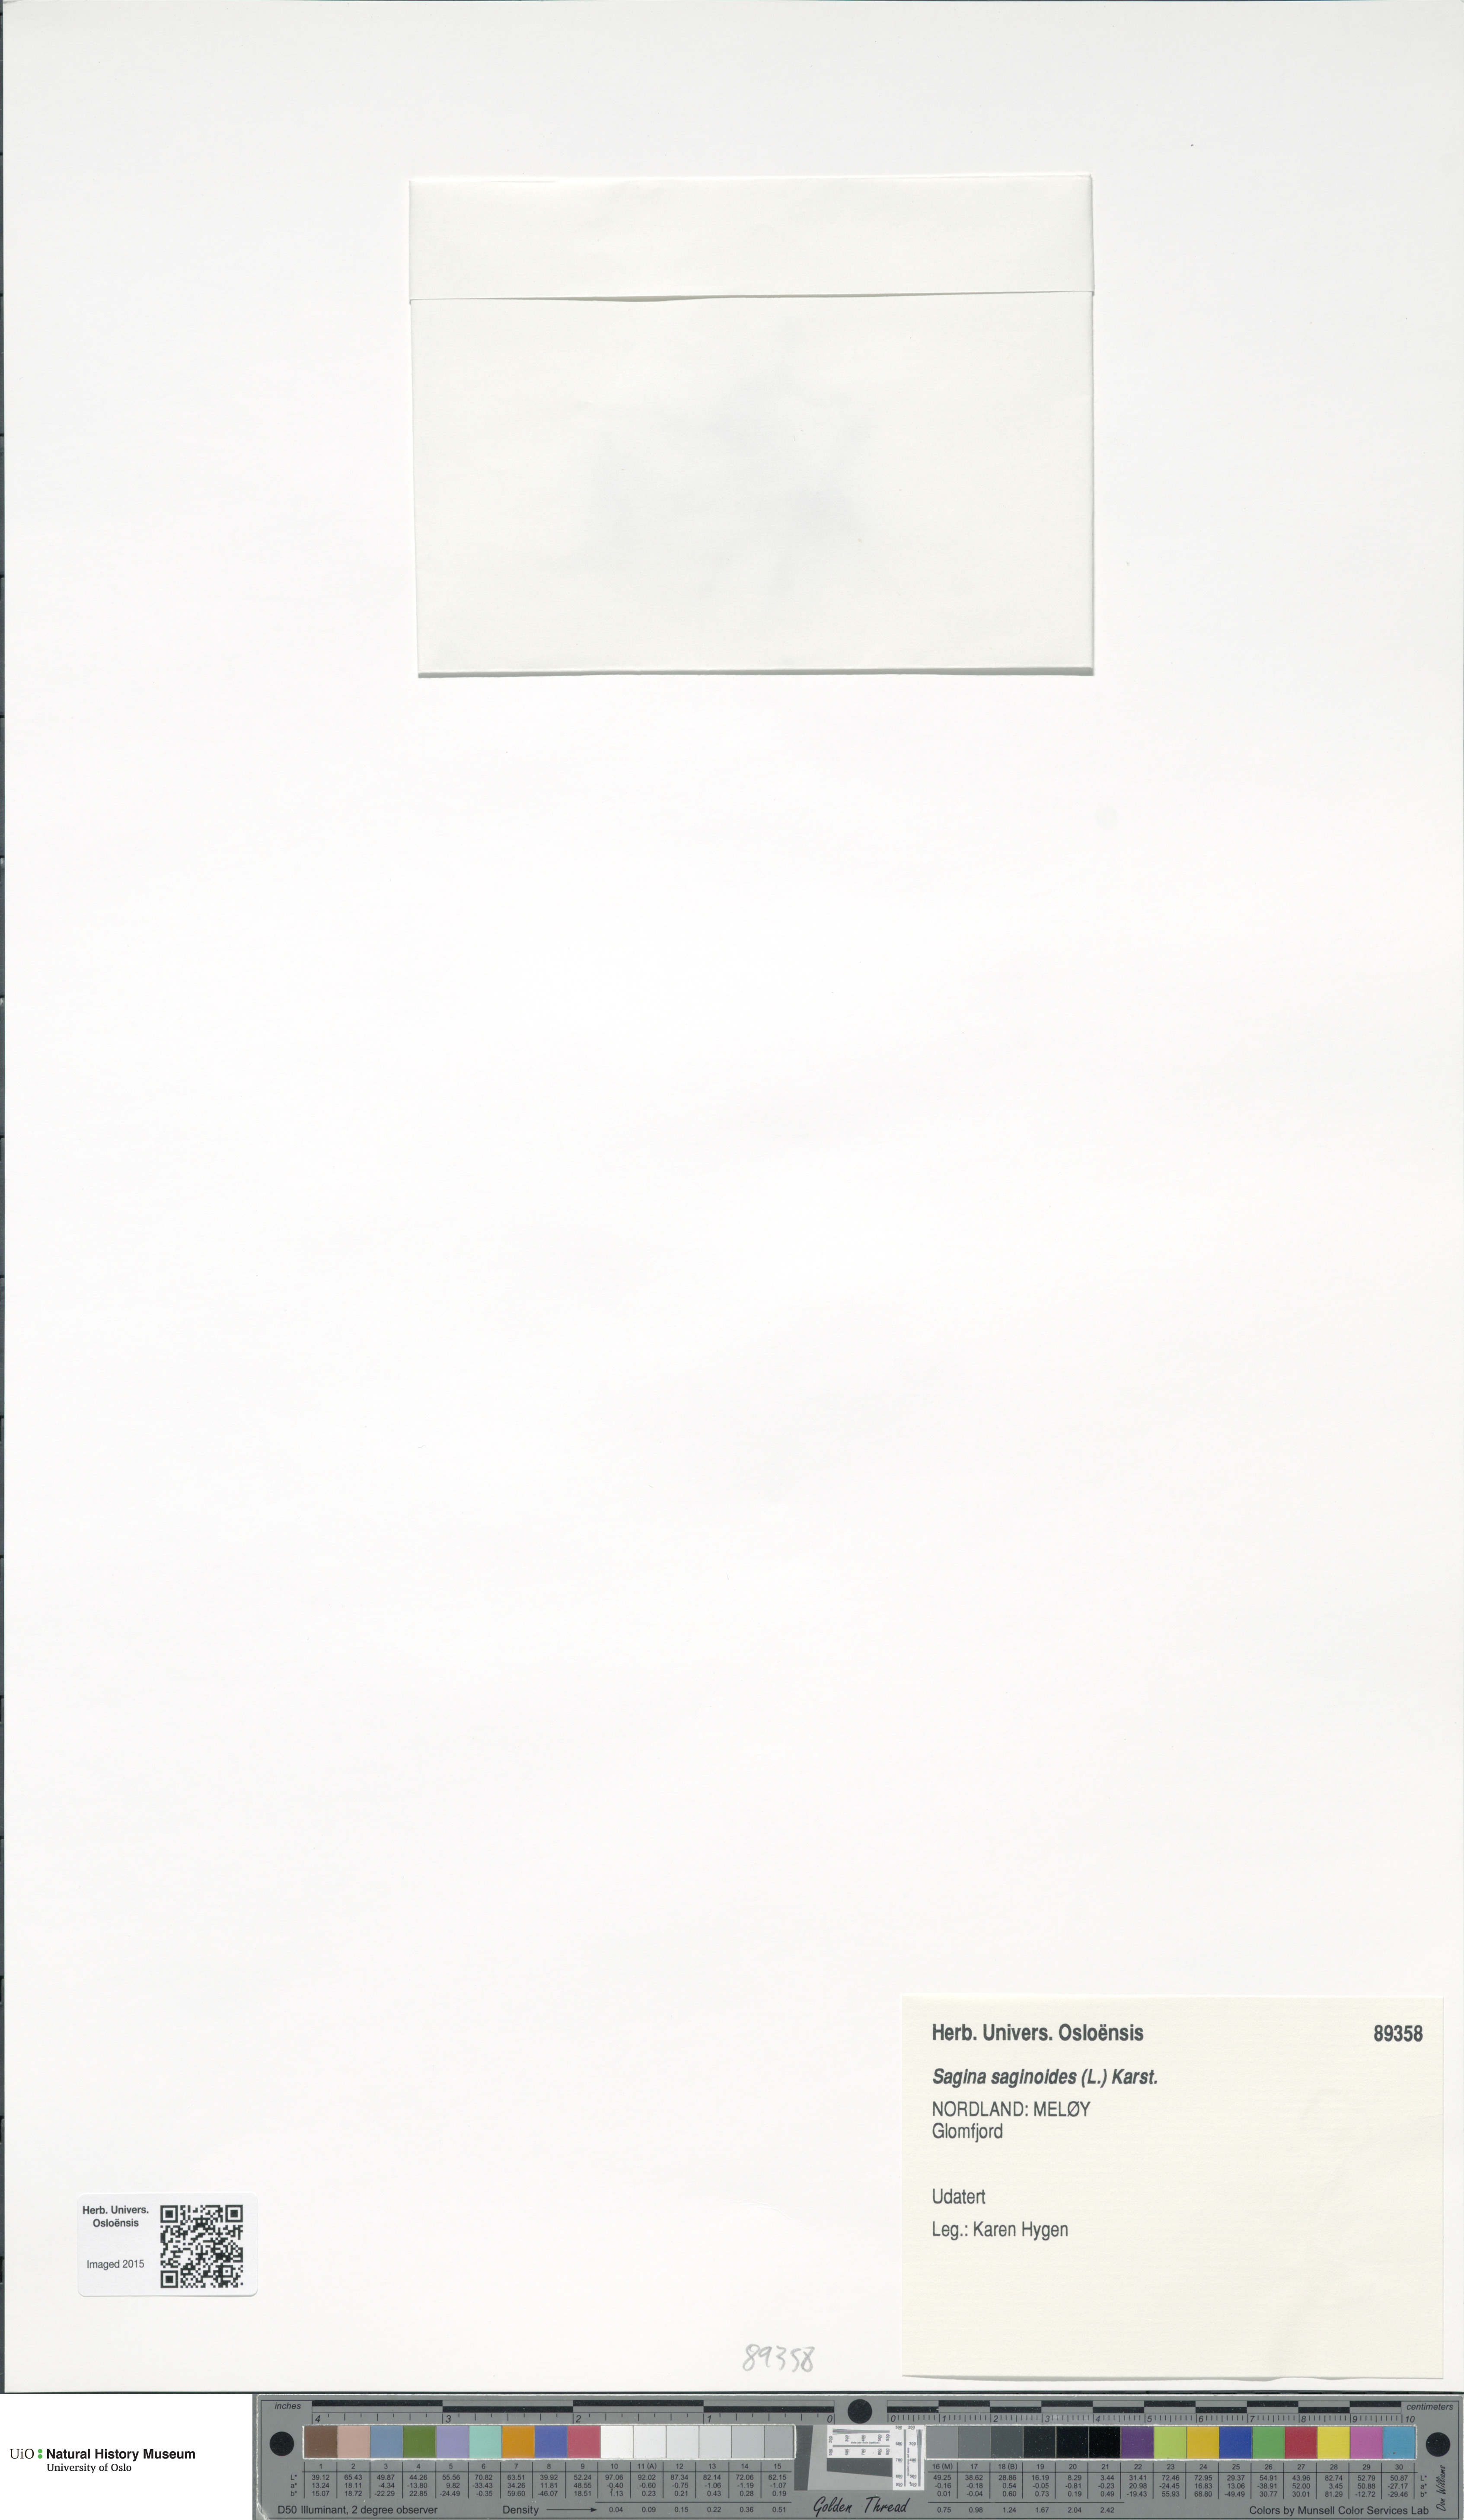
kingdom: Plantae
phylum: Tracheophyta
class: Magnoliopsida
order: Caryophyllales
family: Caryophyllaceae
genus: Sagina
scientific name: Sagina saginoides
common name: Alpine pearlwort
